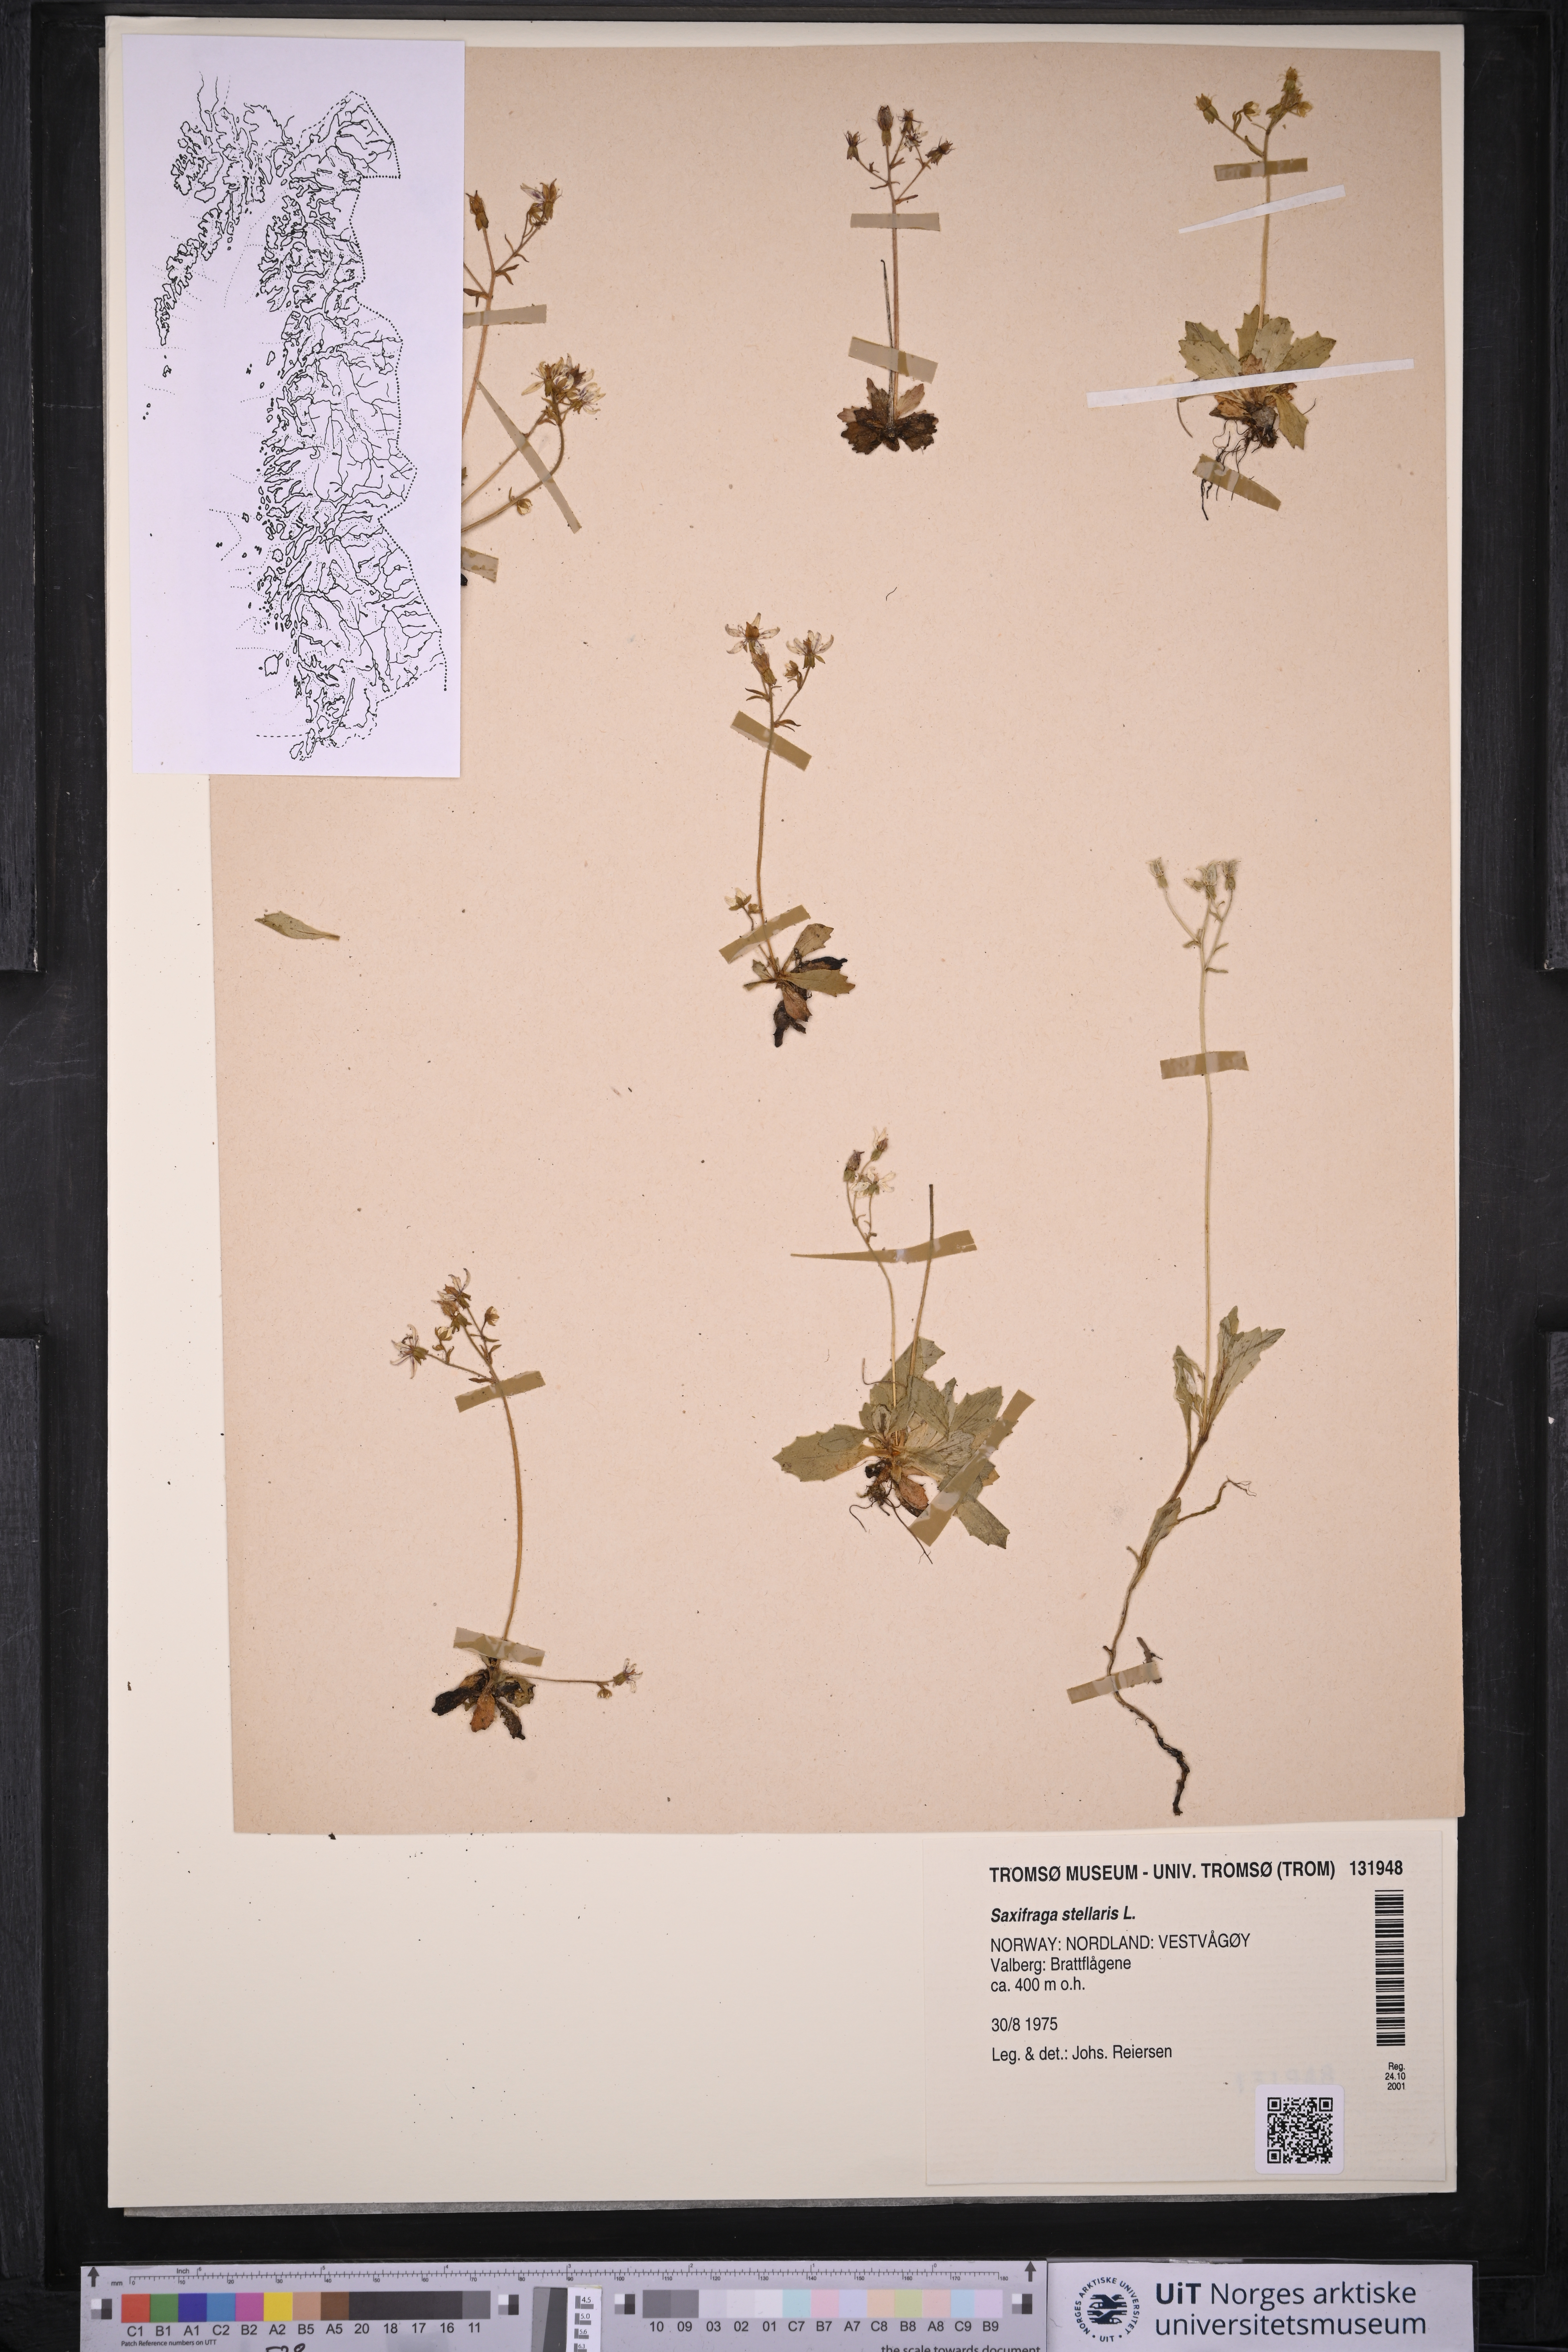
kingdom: Plantae
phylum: Tracheophyta
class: Magnoliopsida
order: Saxifragales
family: Saxifragaceae
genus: Micranthes
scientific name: Micranthes stellaris
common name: Starry saxifrage
